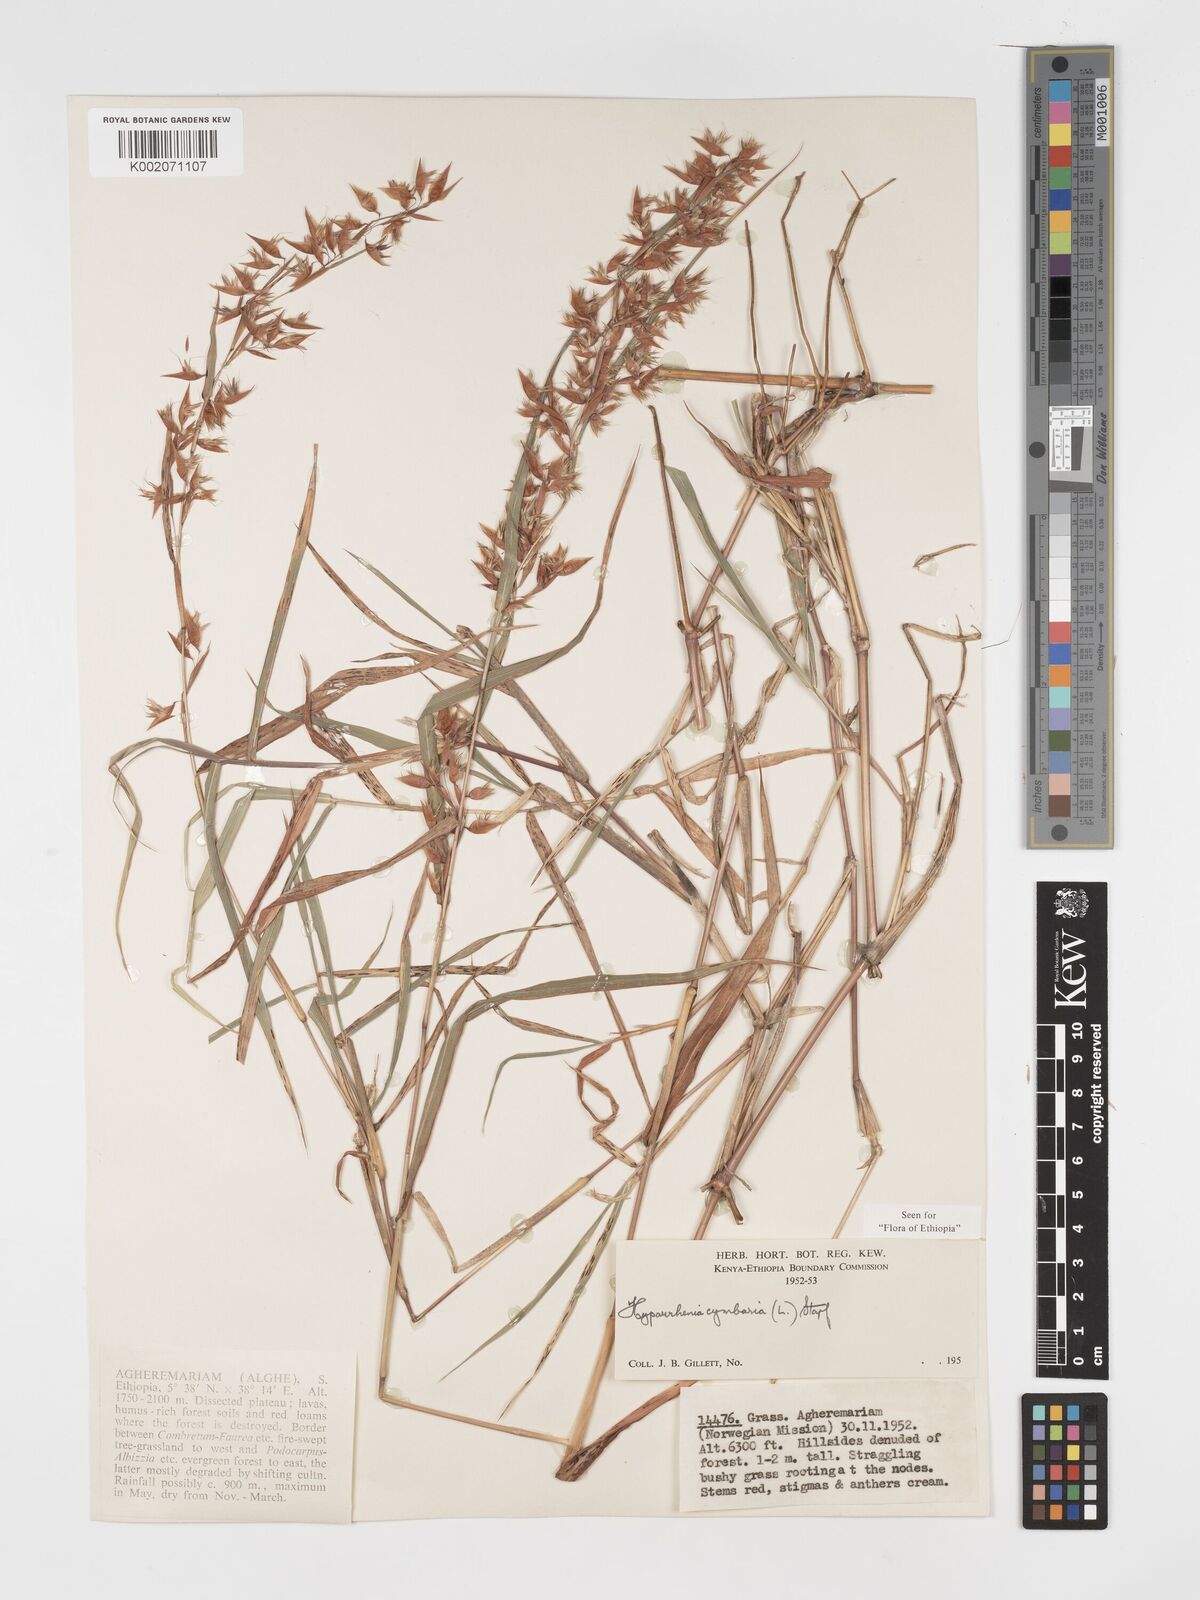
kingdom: Plantae
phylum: Tracheophyta
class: Liliopsida
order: Poales
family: Poaceae
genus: Hyparrhenia
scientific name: Hyparrhenia cymbaria
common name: Boat thatching grass
